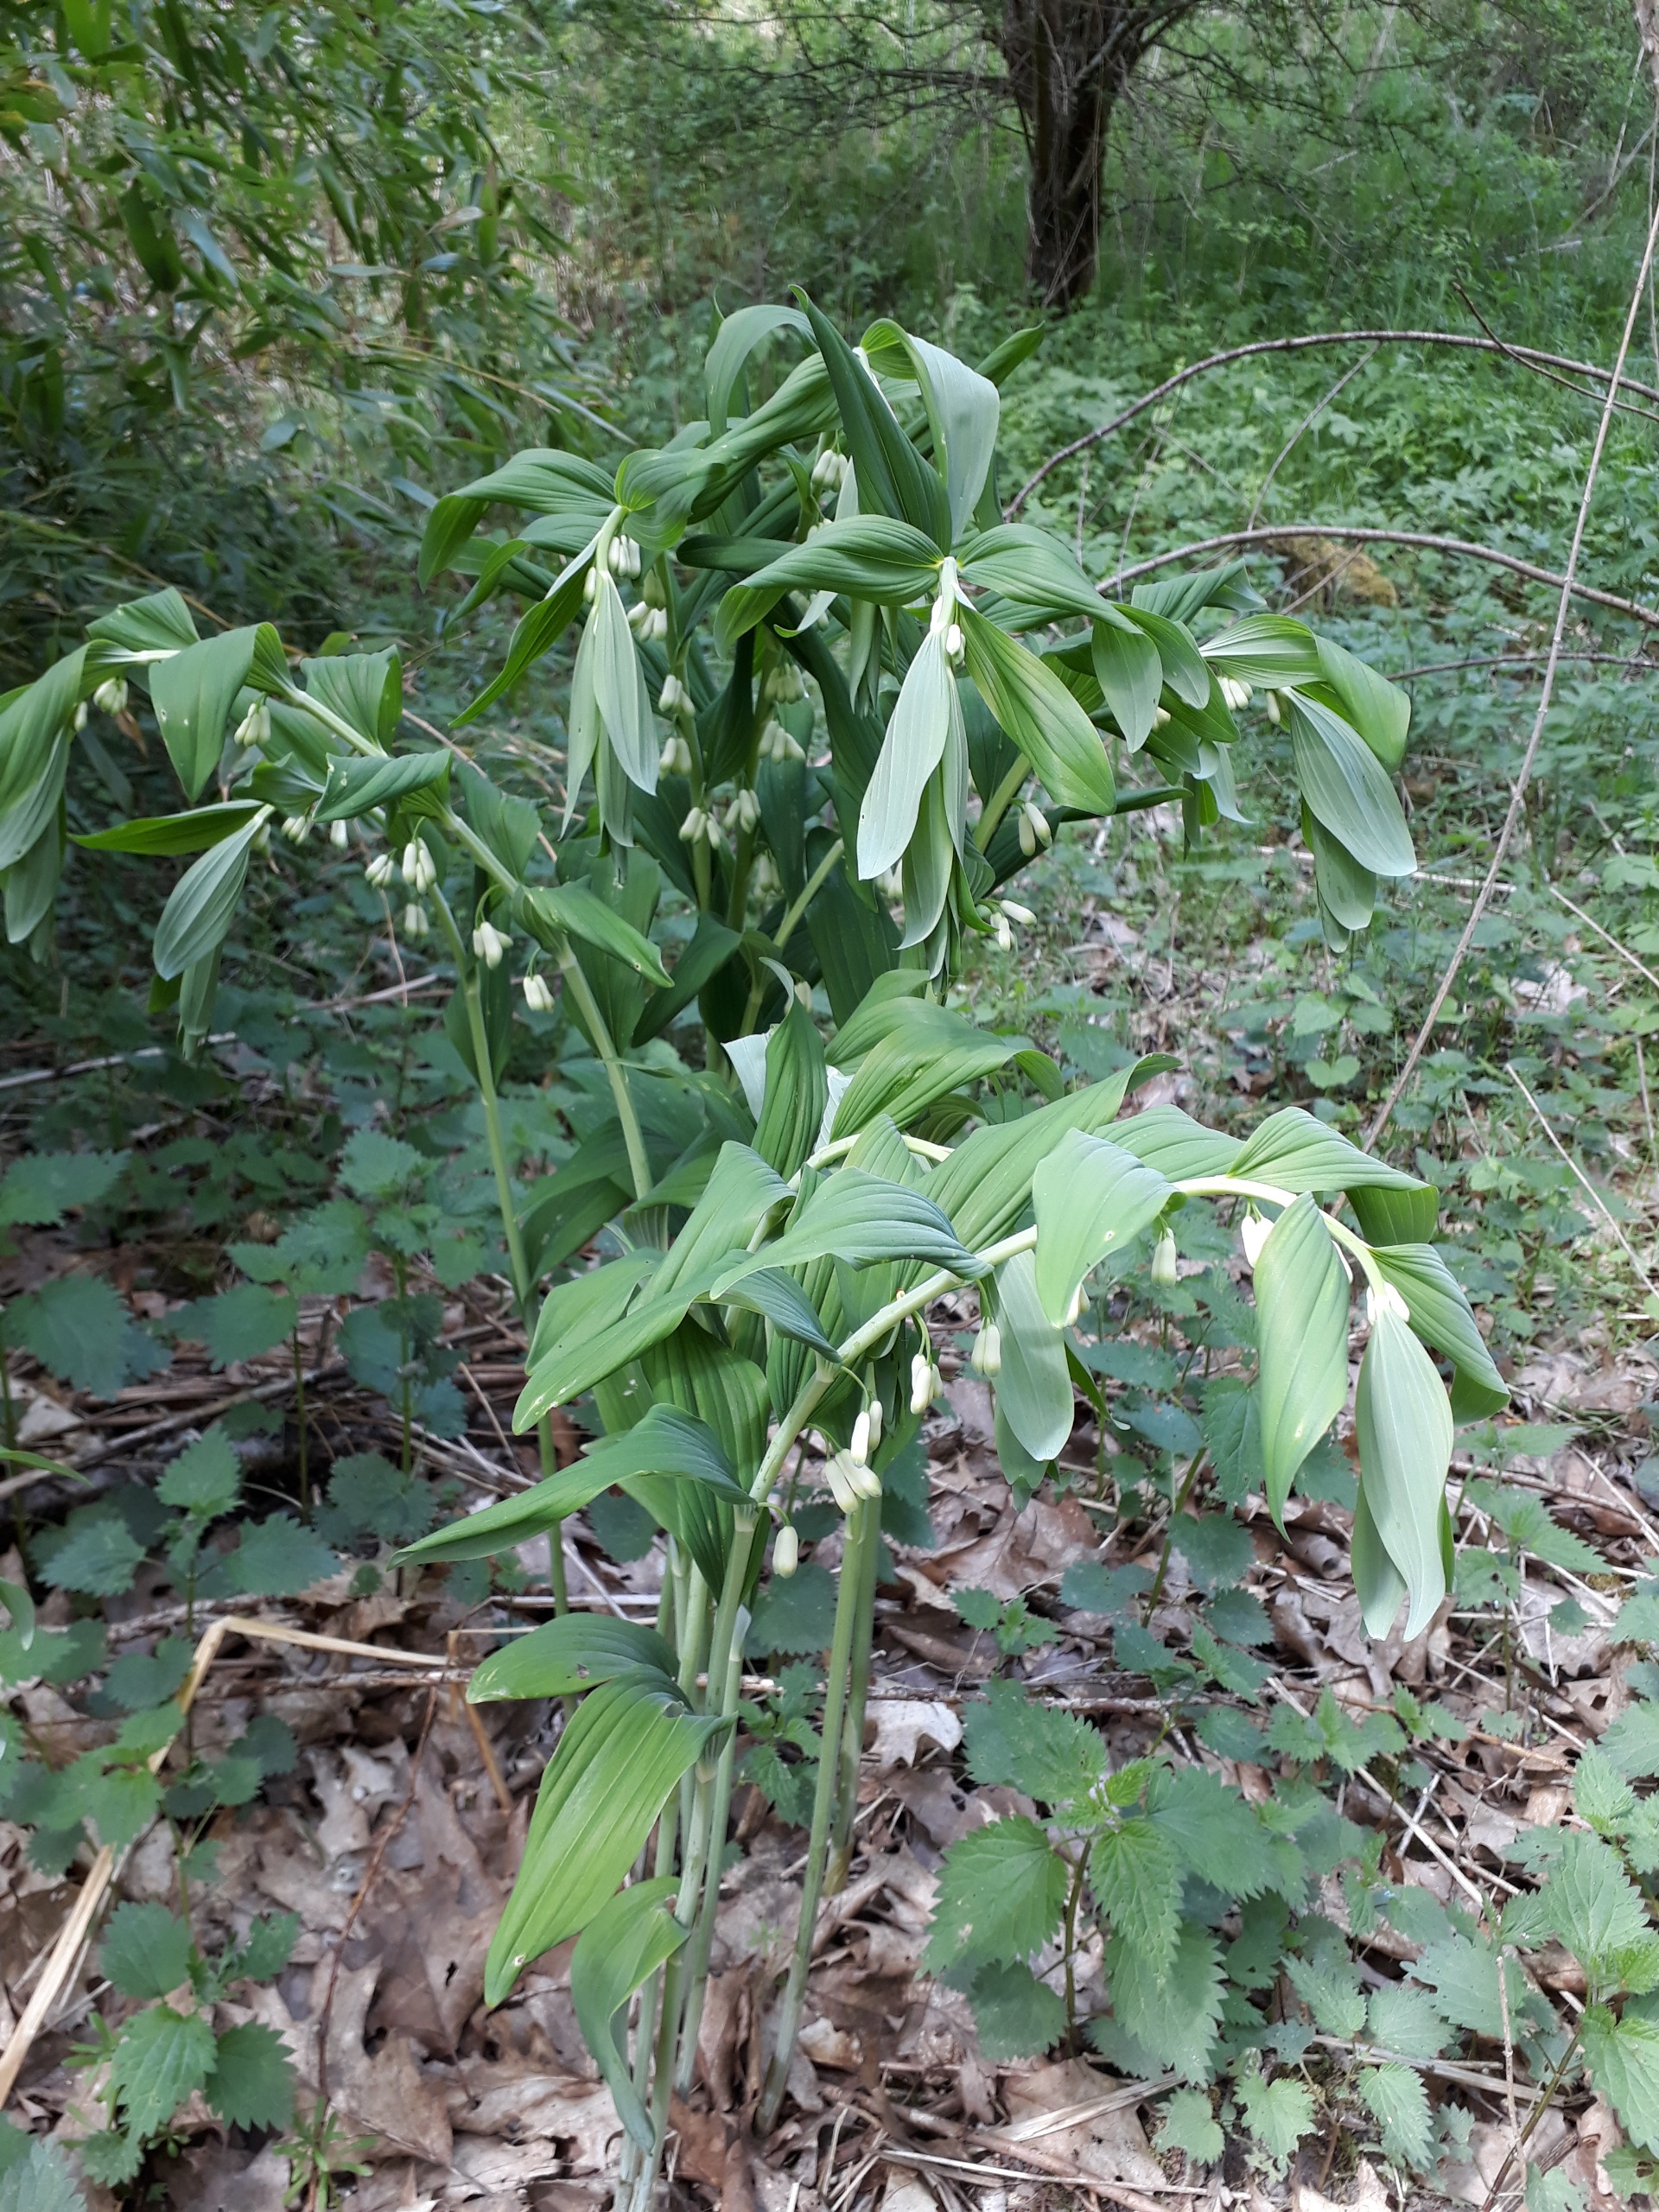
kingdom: Plantae
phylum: Tracheophyta
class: Liliopsida
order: Asparagales
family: Asparagaceae
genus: Polygonatum
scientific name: Polygonatum
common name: Hybrid-konval
